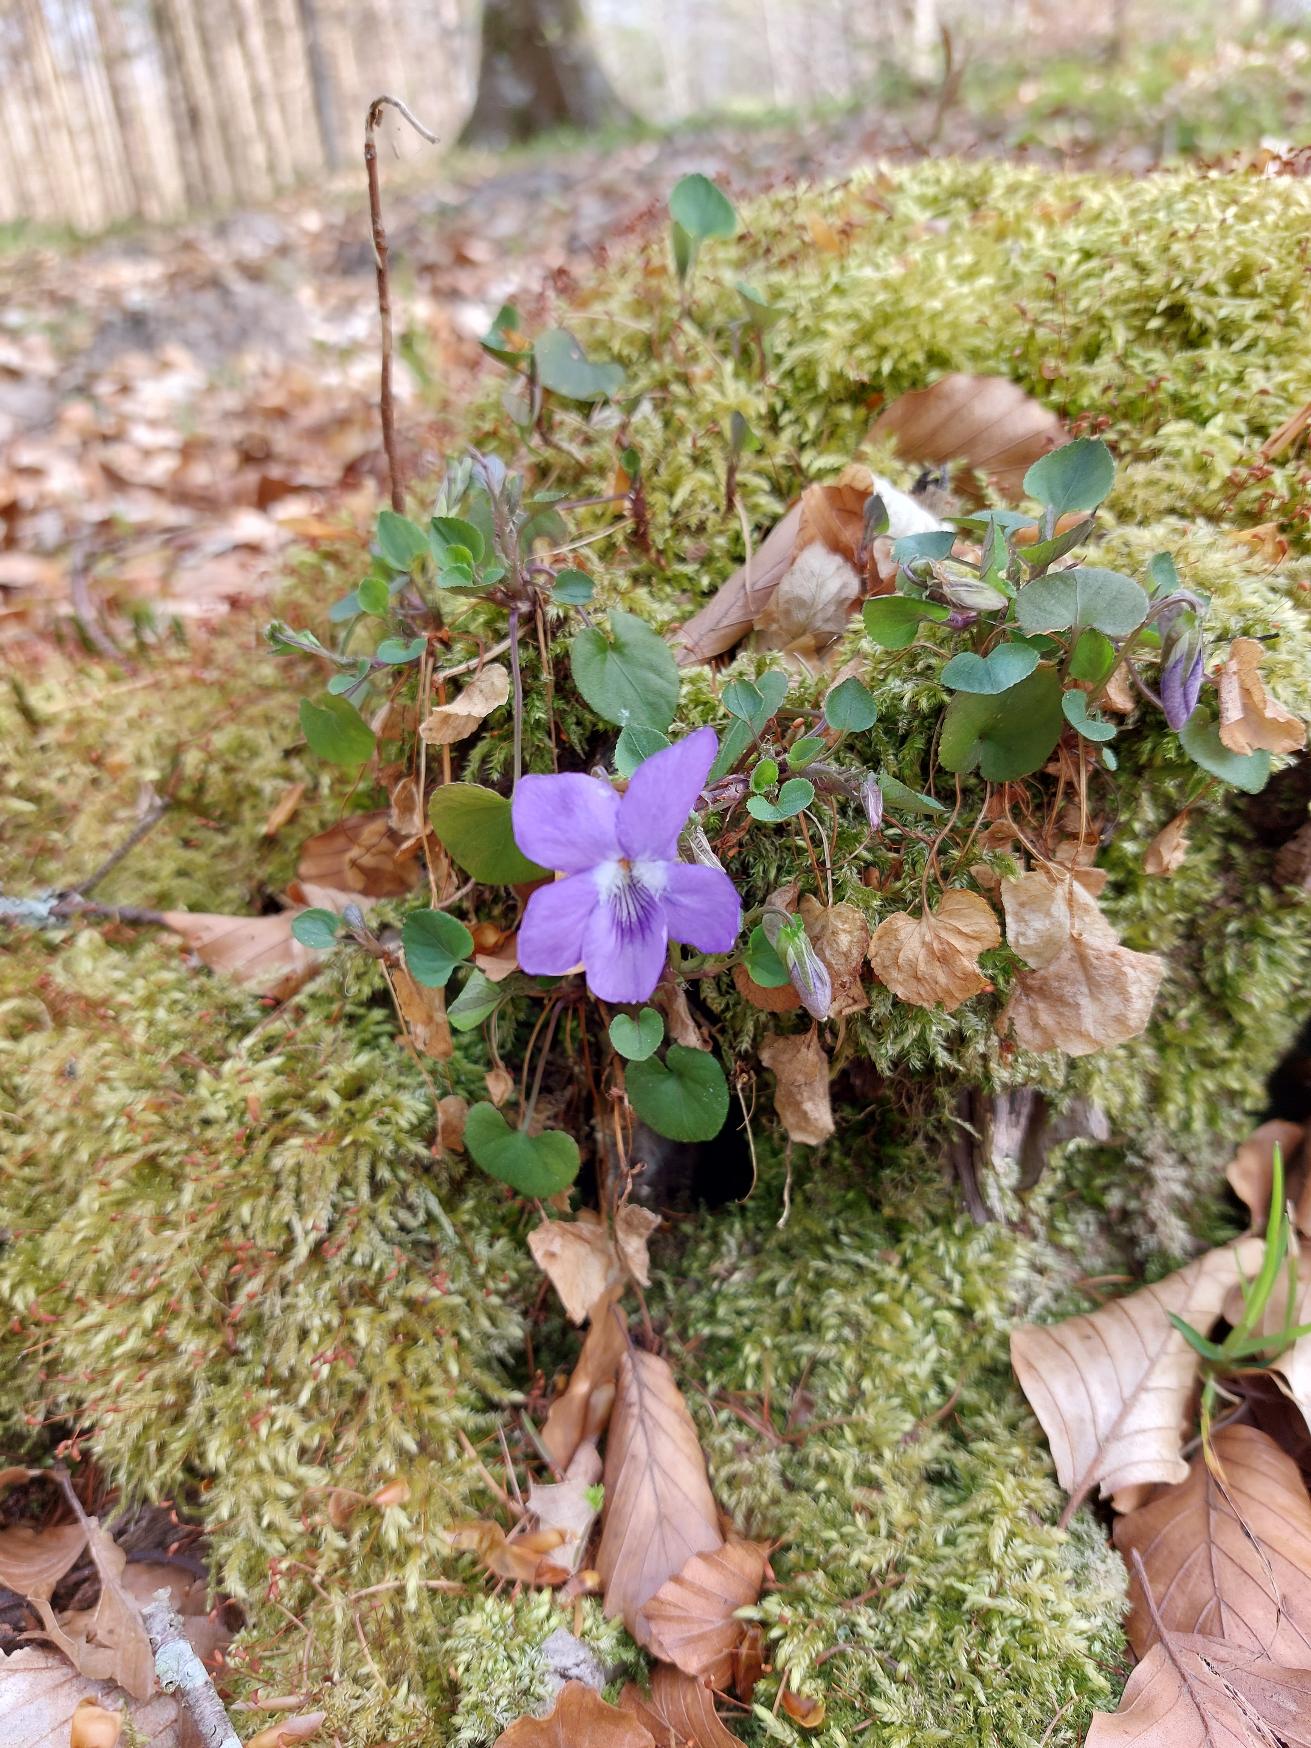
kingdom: Plantae
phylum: Tracheophyta
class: Magnoliopsida
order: Malpighiales
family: Violaceae
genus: Viola
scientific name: Viola riviniana
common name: Krat-viol
